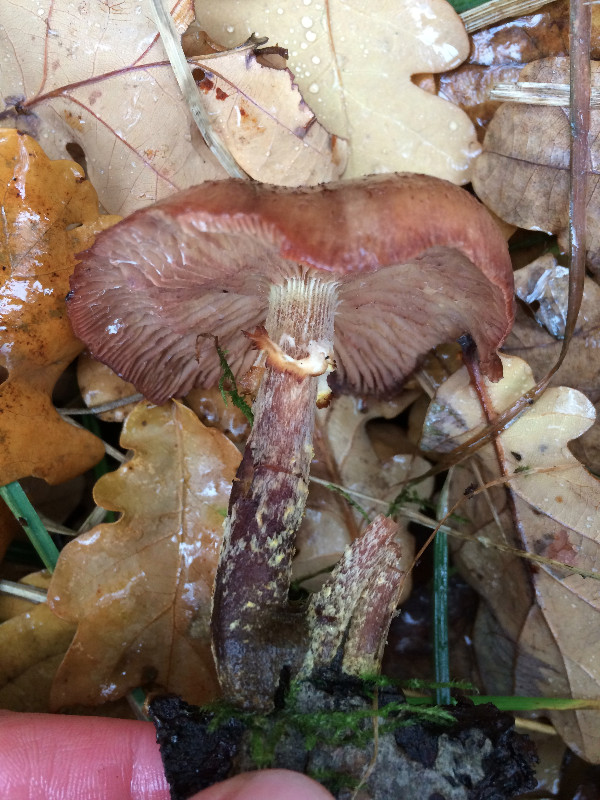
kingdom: Fungi
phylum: Basidiomycota
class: Agaricomycetes
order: Agaricales
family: Physalacriaceae
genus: Armillaria
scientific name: Armillaria lutea
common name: køllestokket honningsvamp
